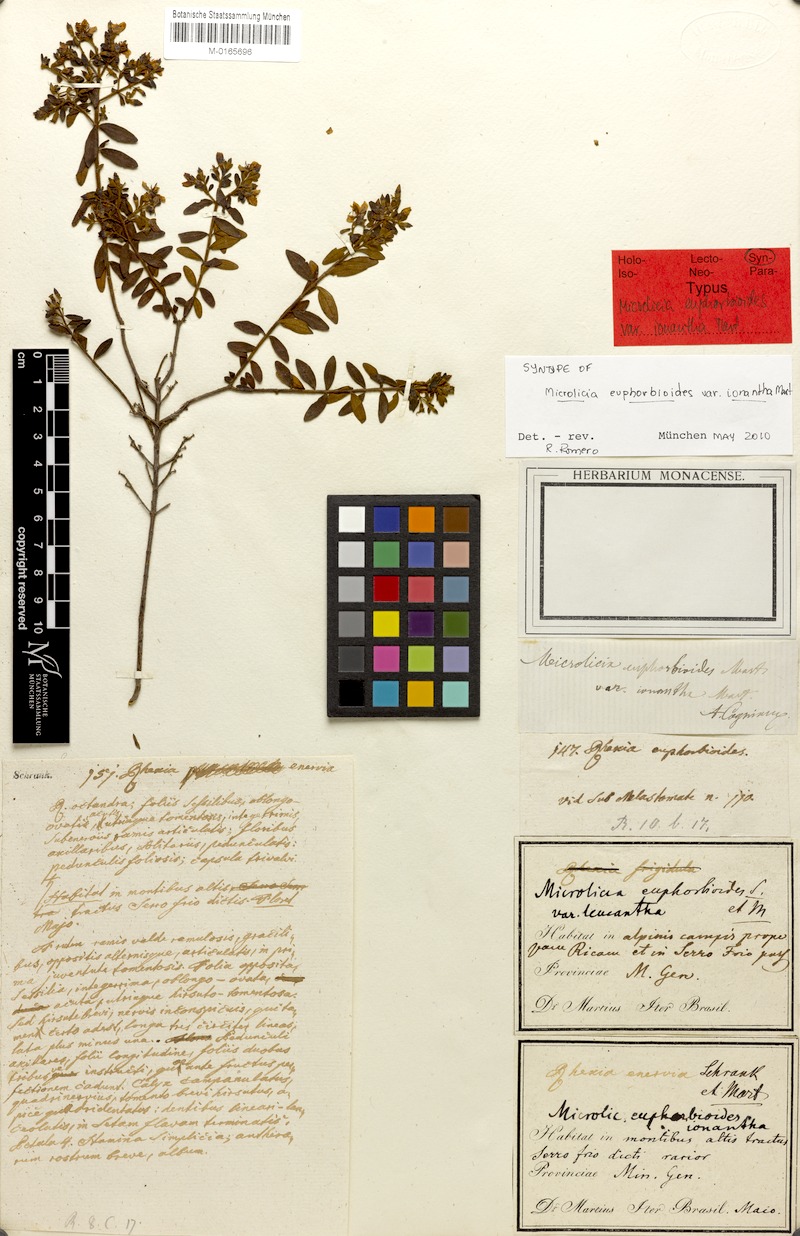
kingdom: Plantae
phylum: Tracheophyta
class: Magnoliopsida
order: Myrtales
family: Melastomataceae
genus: Microlicia
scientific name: Microlicia euphorbioides
